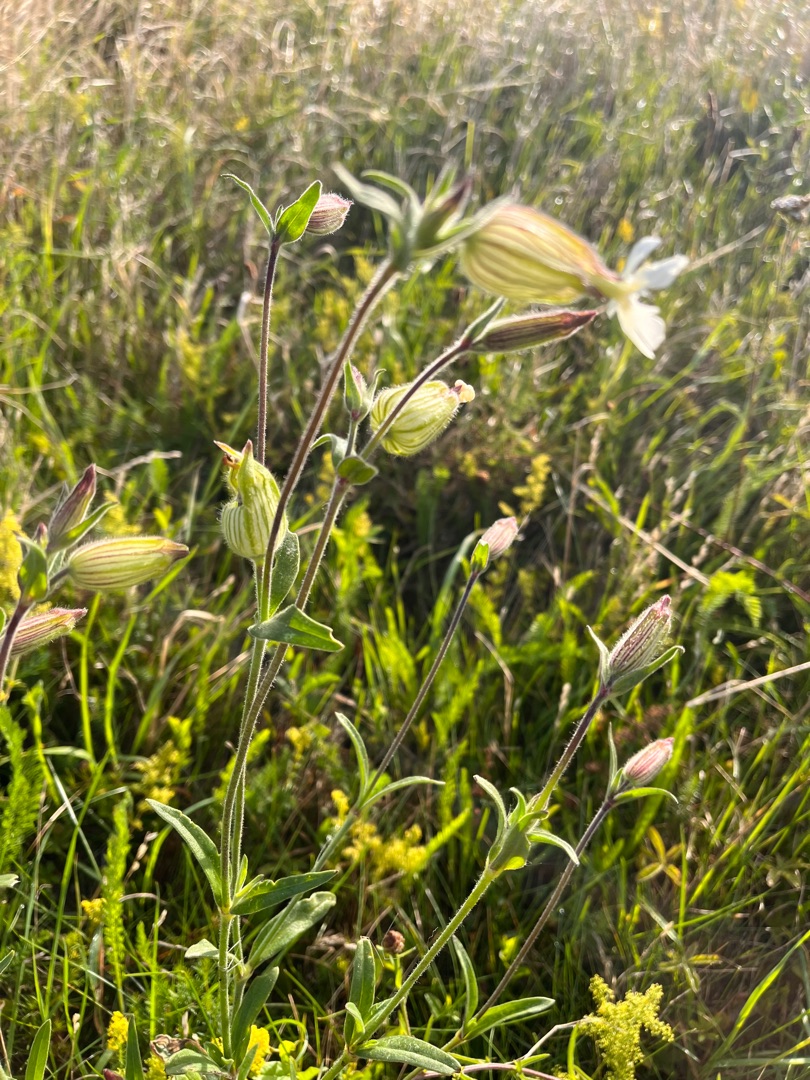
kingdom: Plantae
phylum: Tracheophyta
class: Magnoliopsida
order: Caryophyllales
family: Caryophyllaceae
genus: Silene
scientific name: Silene latifolia
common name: Aftenpragtstjerne
